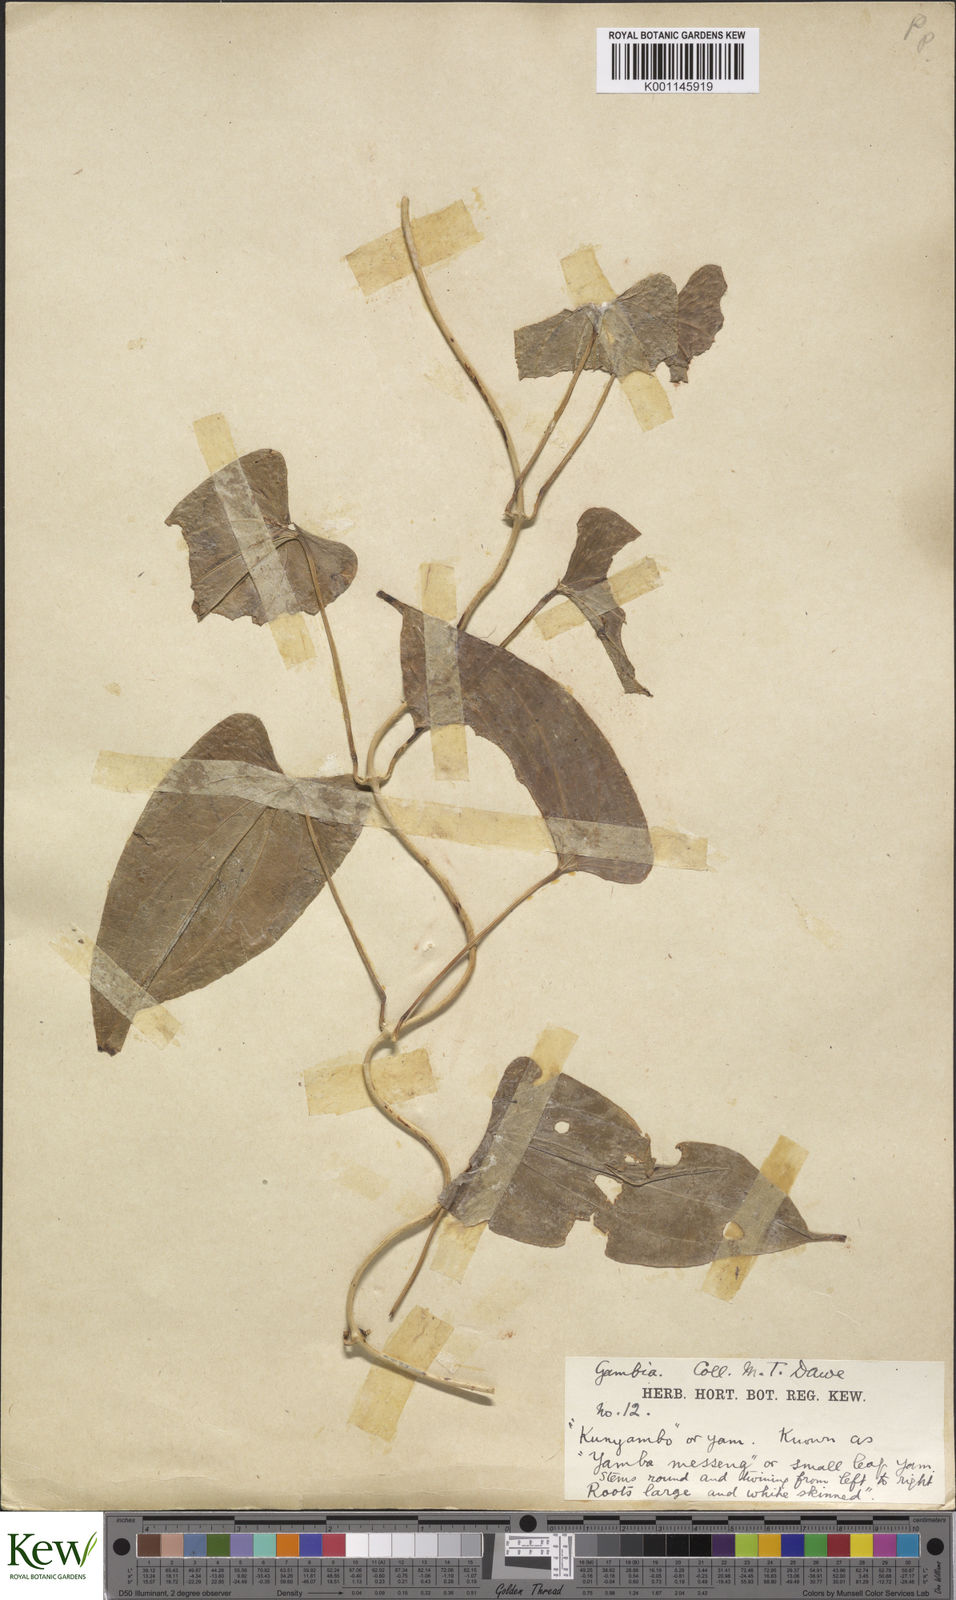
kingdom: Plantae
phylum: Tracheophyta
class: Liliopsida
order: Dioscoreales
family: Dioscoreaceae
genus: Dioscorea
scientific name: Dioscorea togoensis
